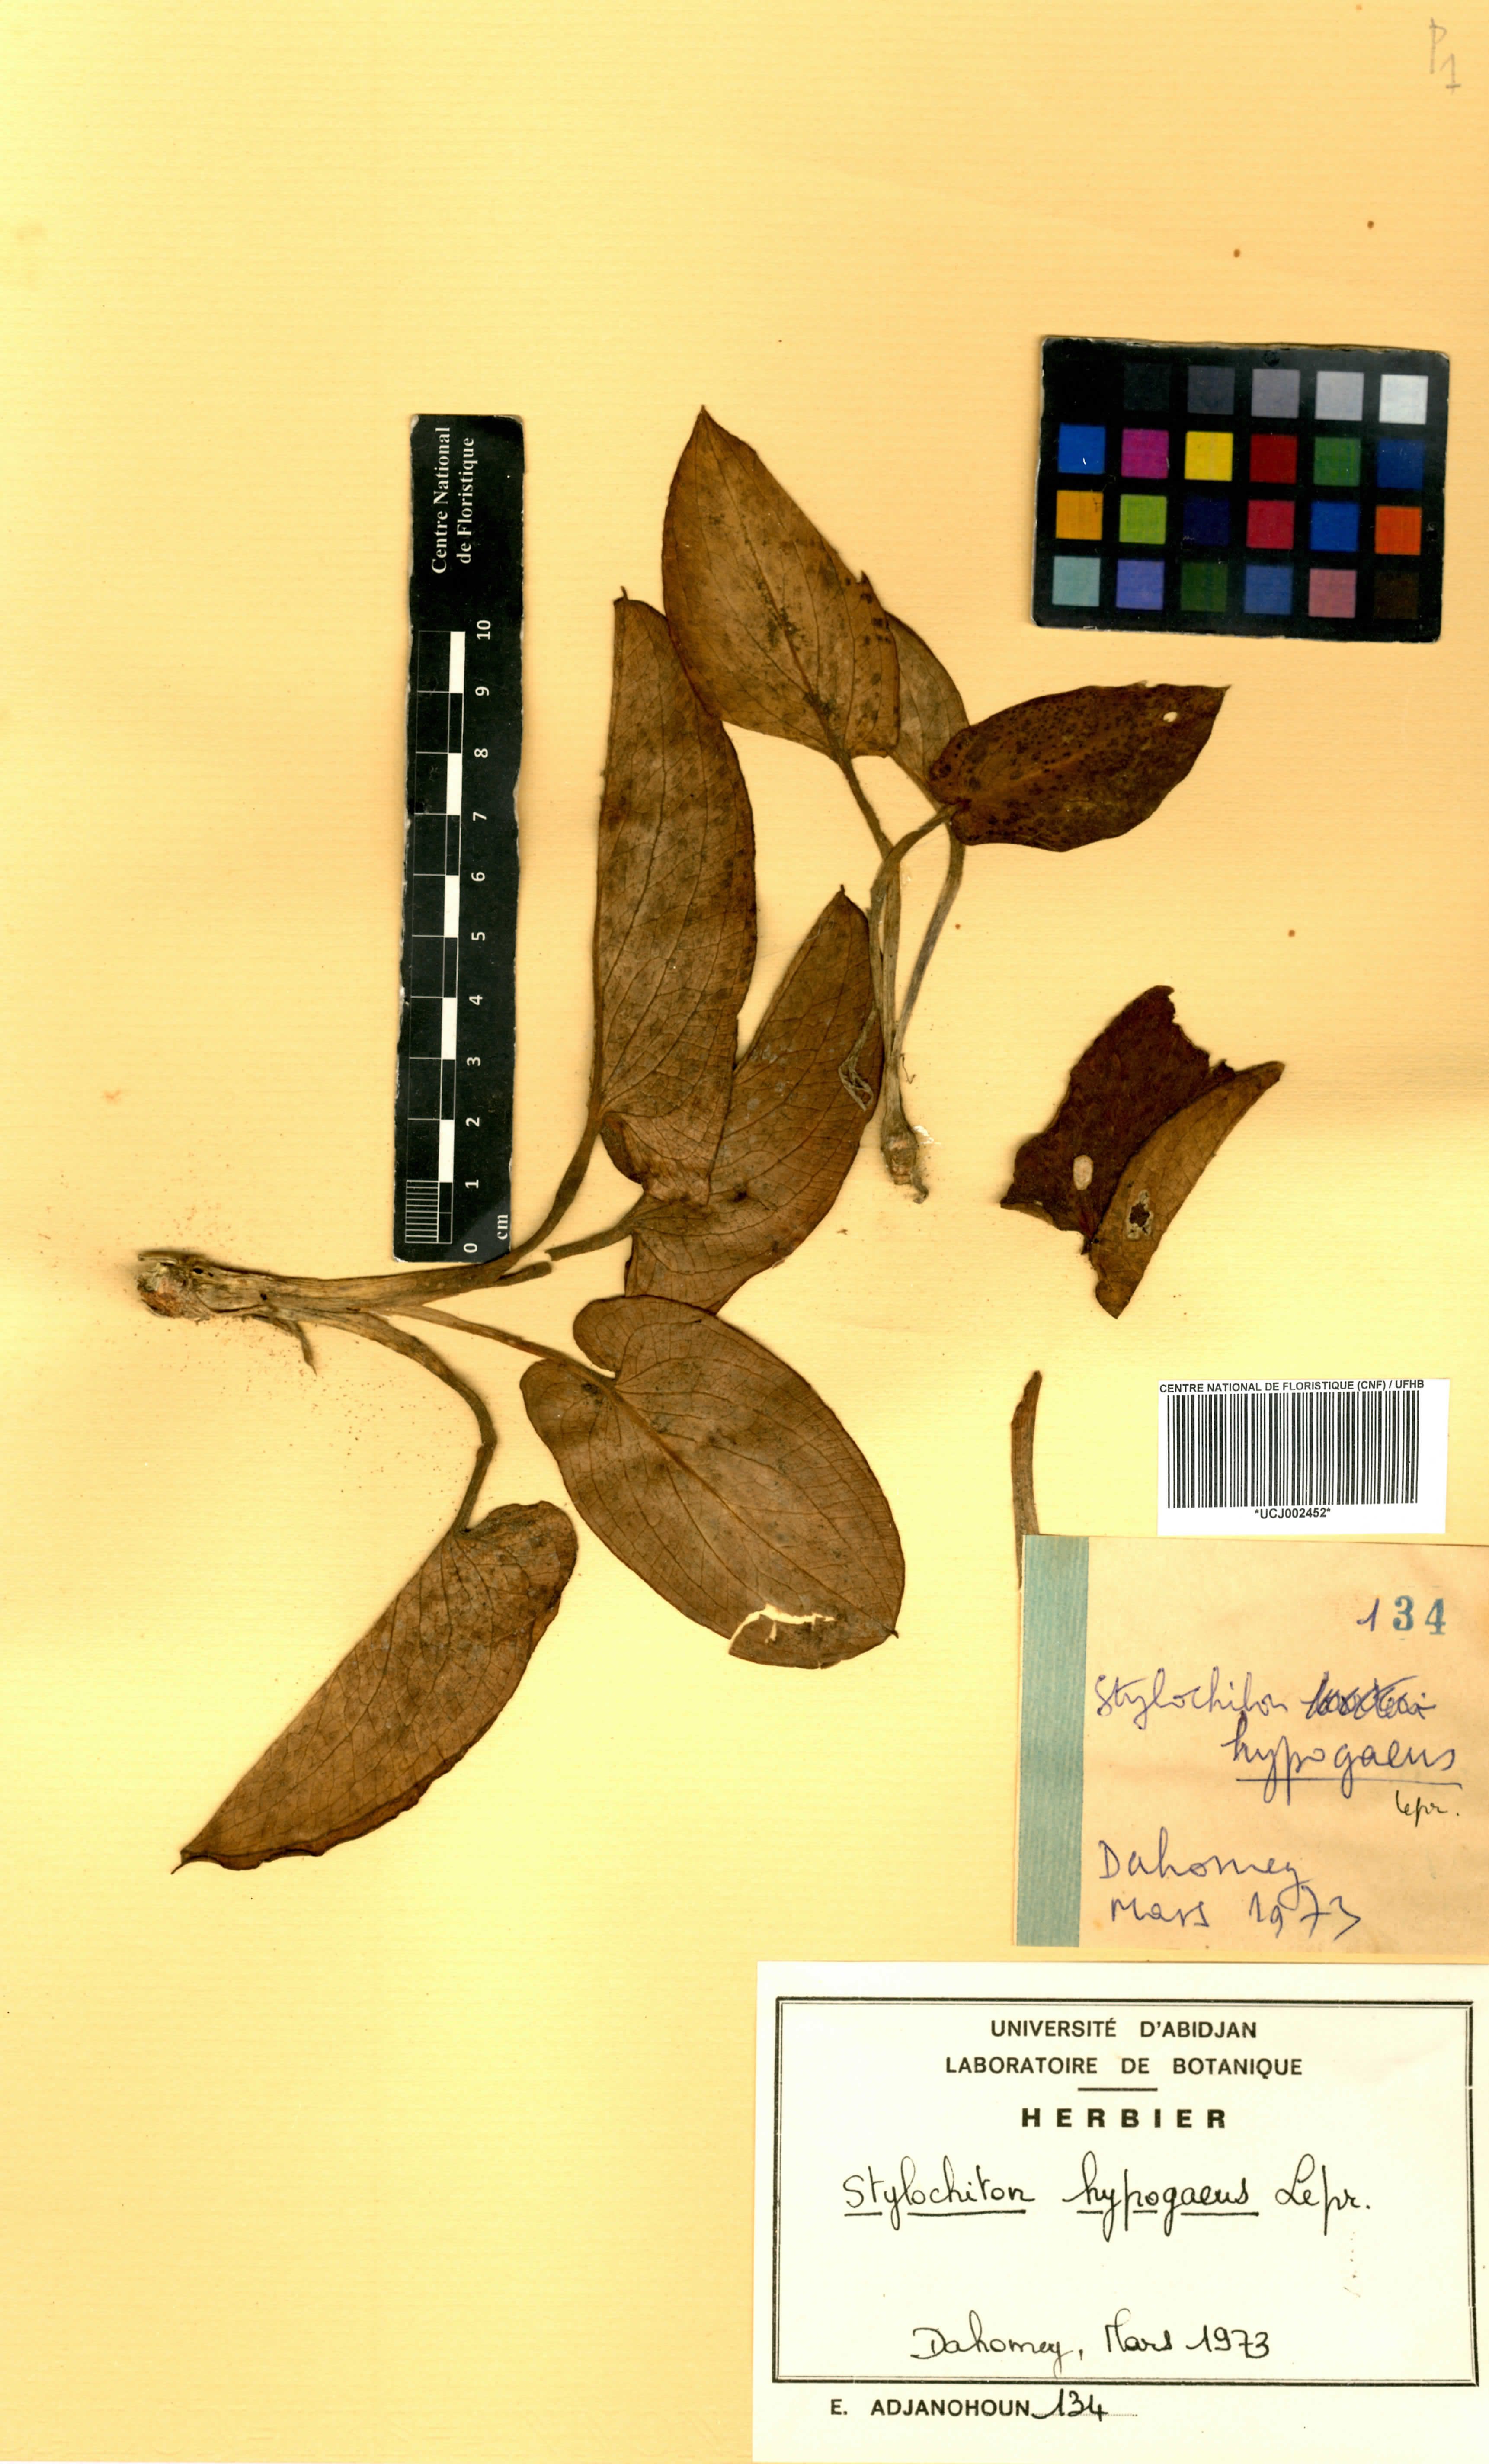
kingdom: Plantae
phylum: Tracheophyta
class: Liliopsida
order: Alismatales
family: Araceae
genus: Stylochaeton
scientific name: Stylochaeton hypogaeum
